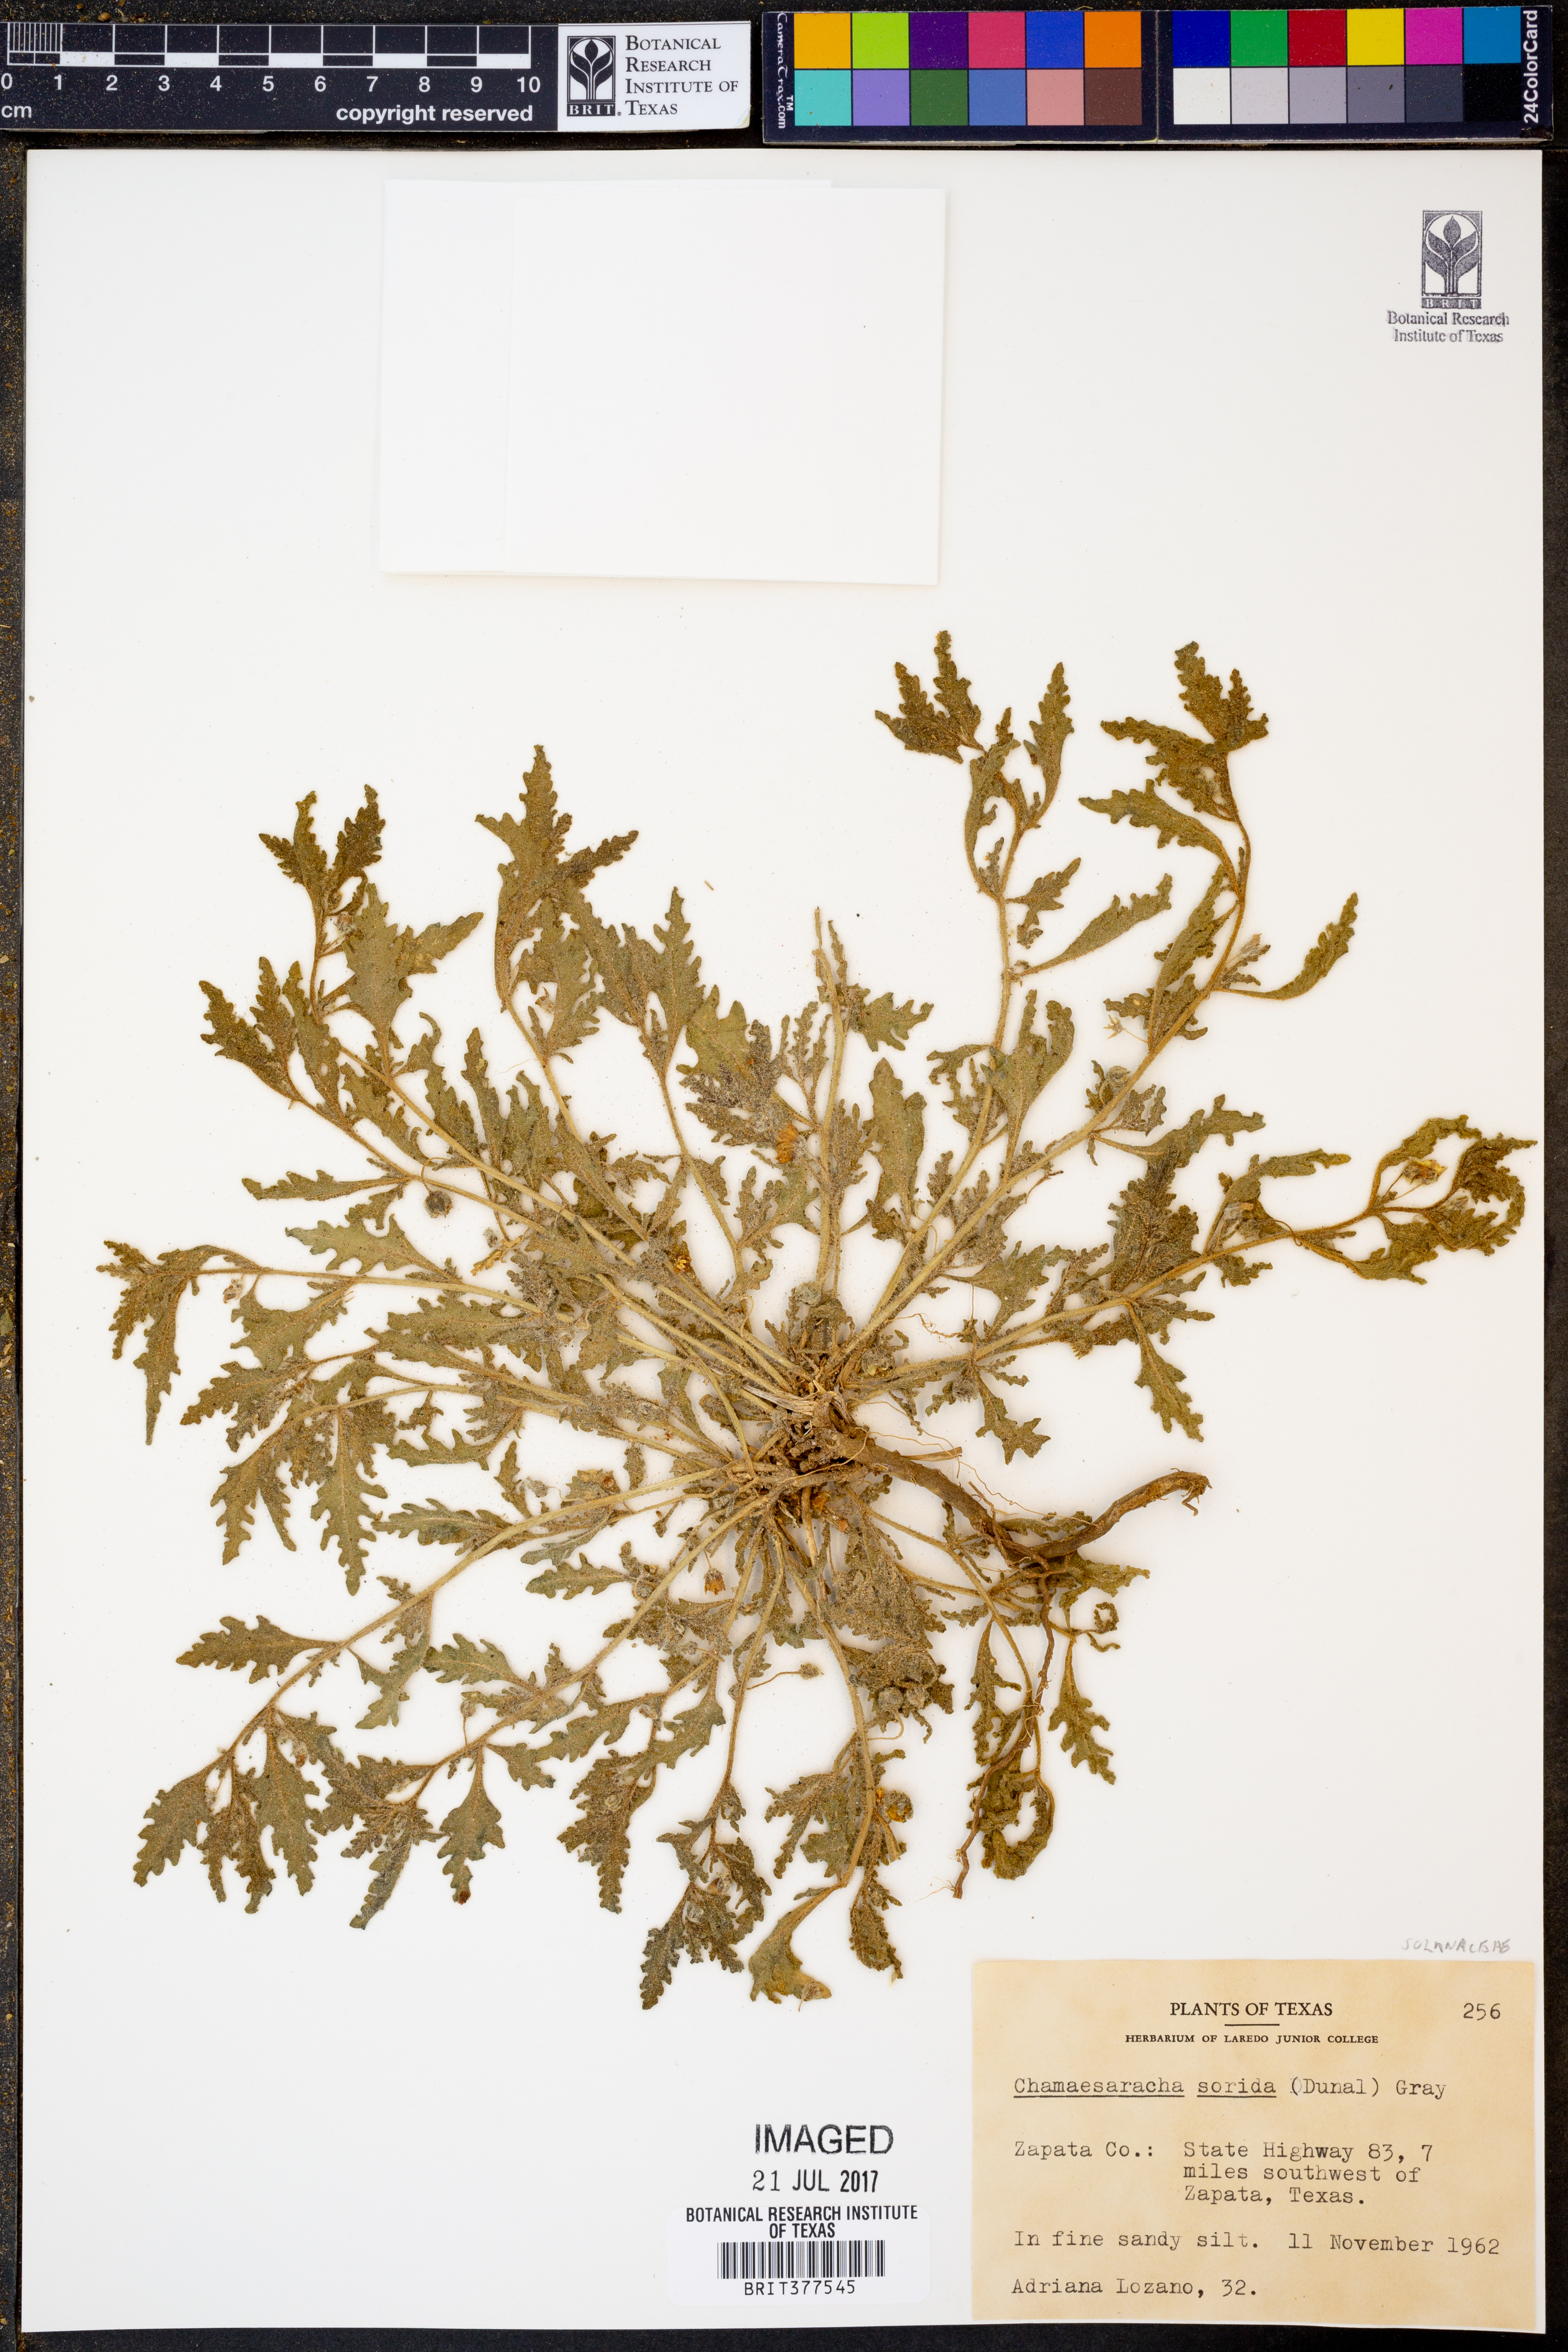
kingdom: Plantae
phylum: Tracheophyta
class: Magnoliopsida
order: Solanales
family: Solanaceae
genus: Chamaesaracha
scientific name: Chamaesaracha sordida
